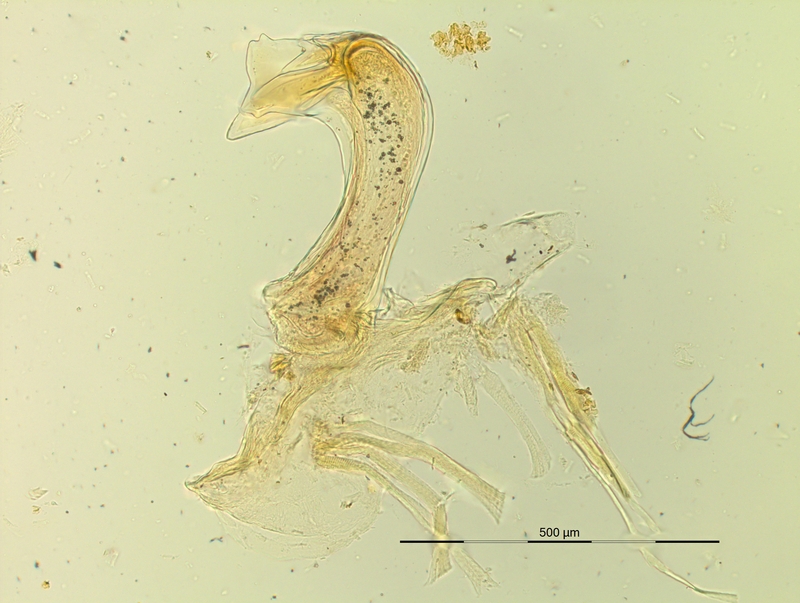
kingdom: Animalia
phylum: Arthropoda
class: Diplopoda
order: Chordeumatida
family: Craspedosomatidae
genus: Pyrgocyphosoma
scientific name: Pyrgocyphosoma brembanum
